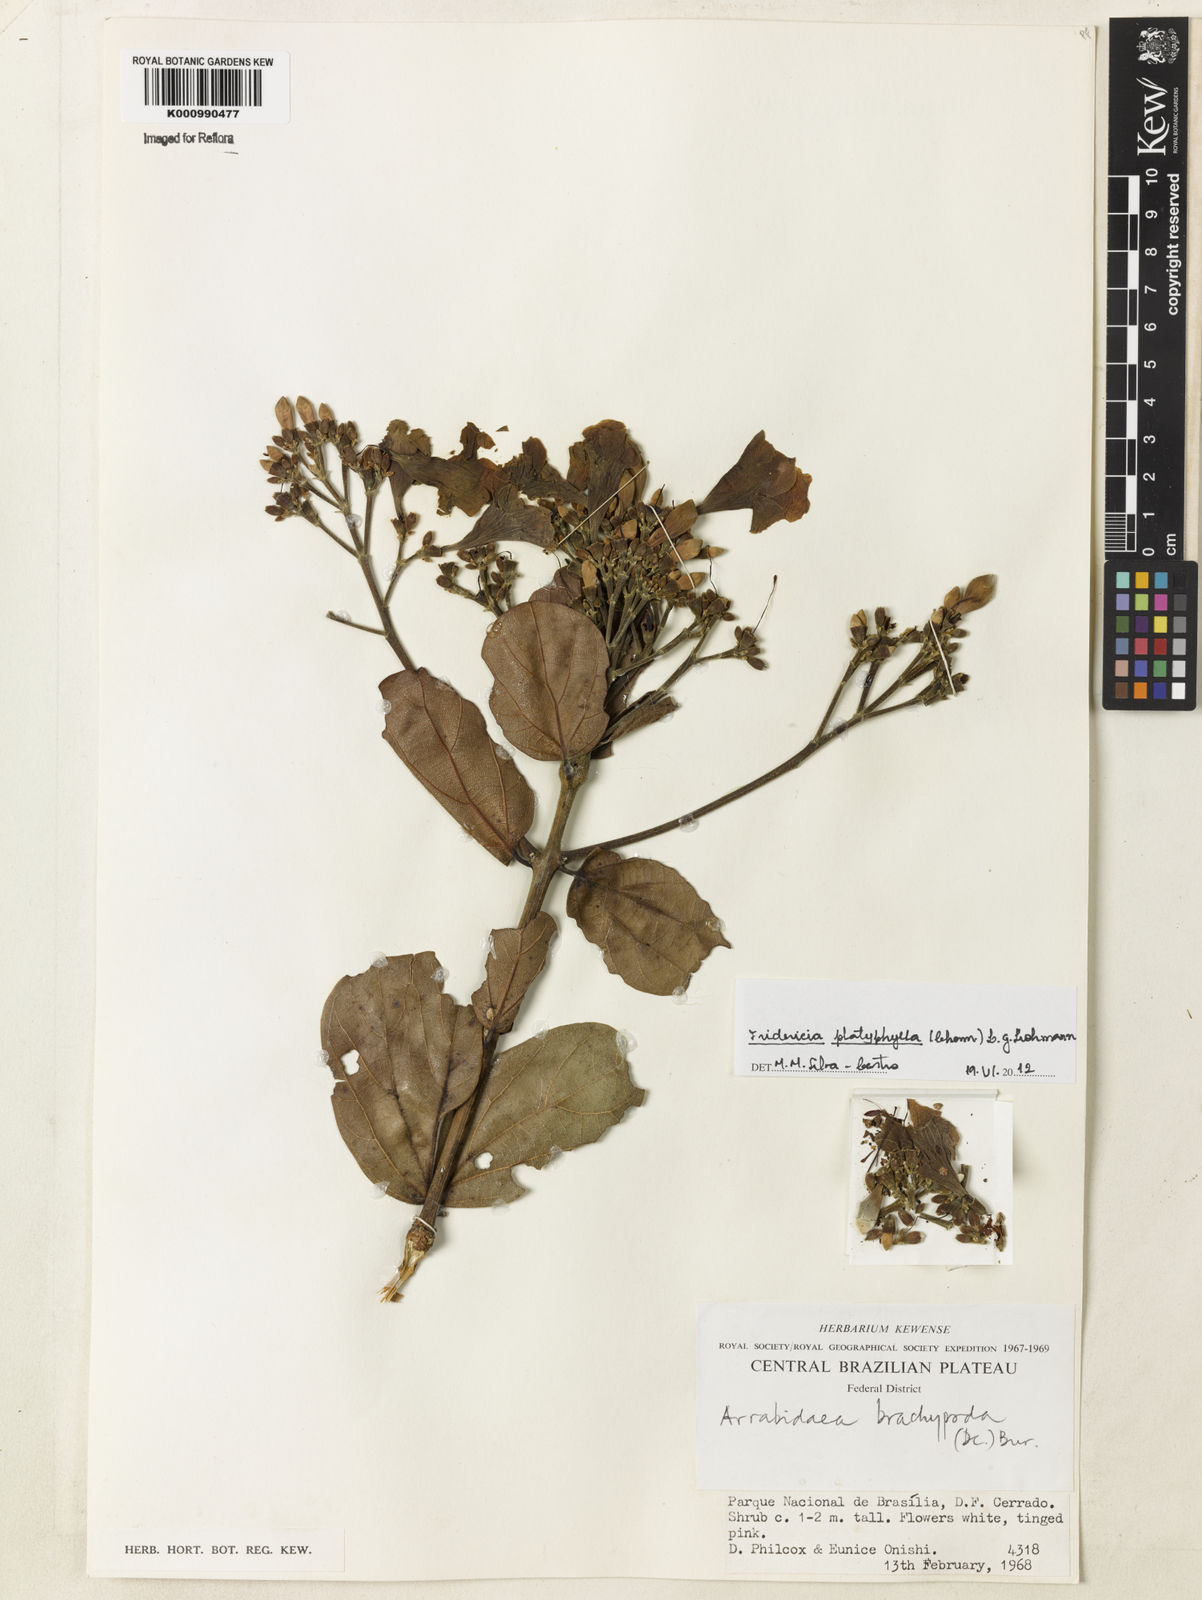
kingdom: Plantae
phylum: Tracheophyta
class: Magnoliopsida
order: Lamiales
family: Bignoniaceae
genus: Fridericia
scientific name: Fridericia platyphylla
